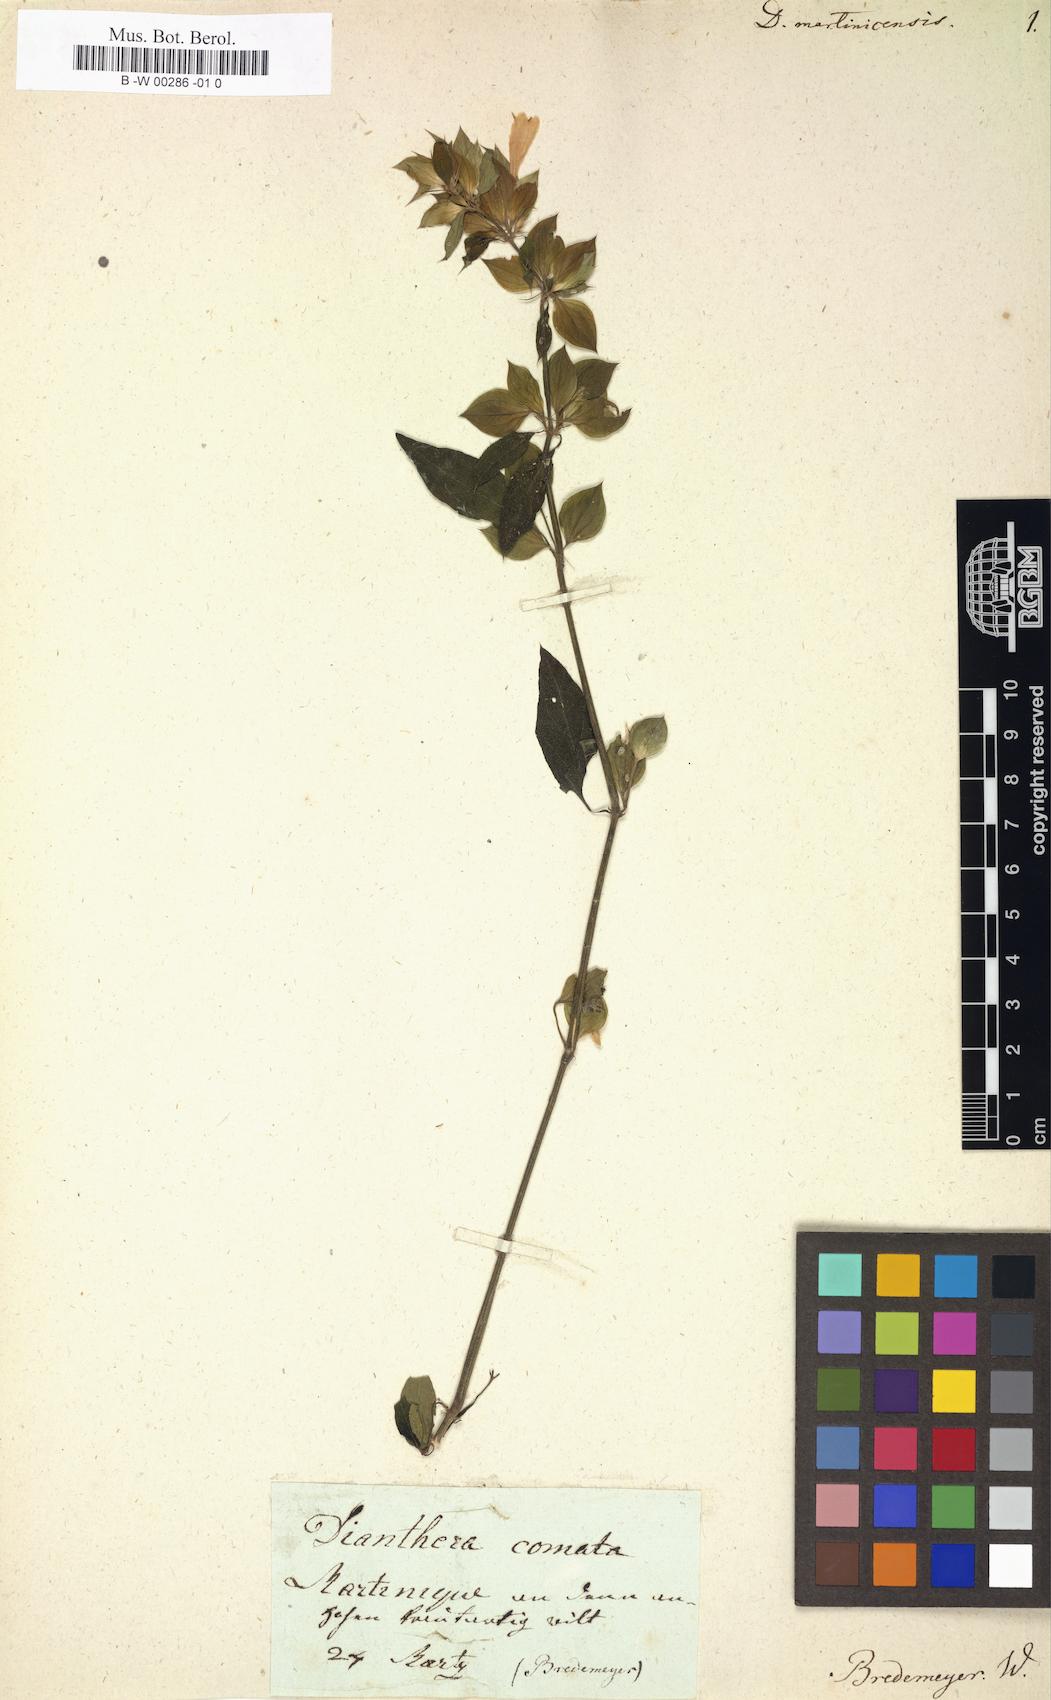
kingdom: Plantae
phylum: Tracheophyta
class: Magnoliopsida
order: Lamiales
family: Acanthaceae
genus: Dicliptera
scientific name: Dicliptera martinicensis
